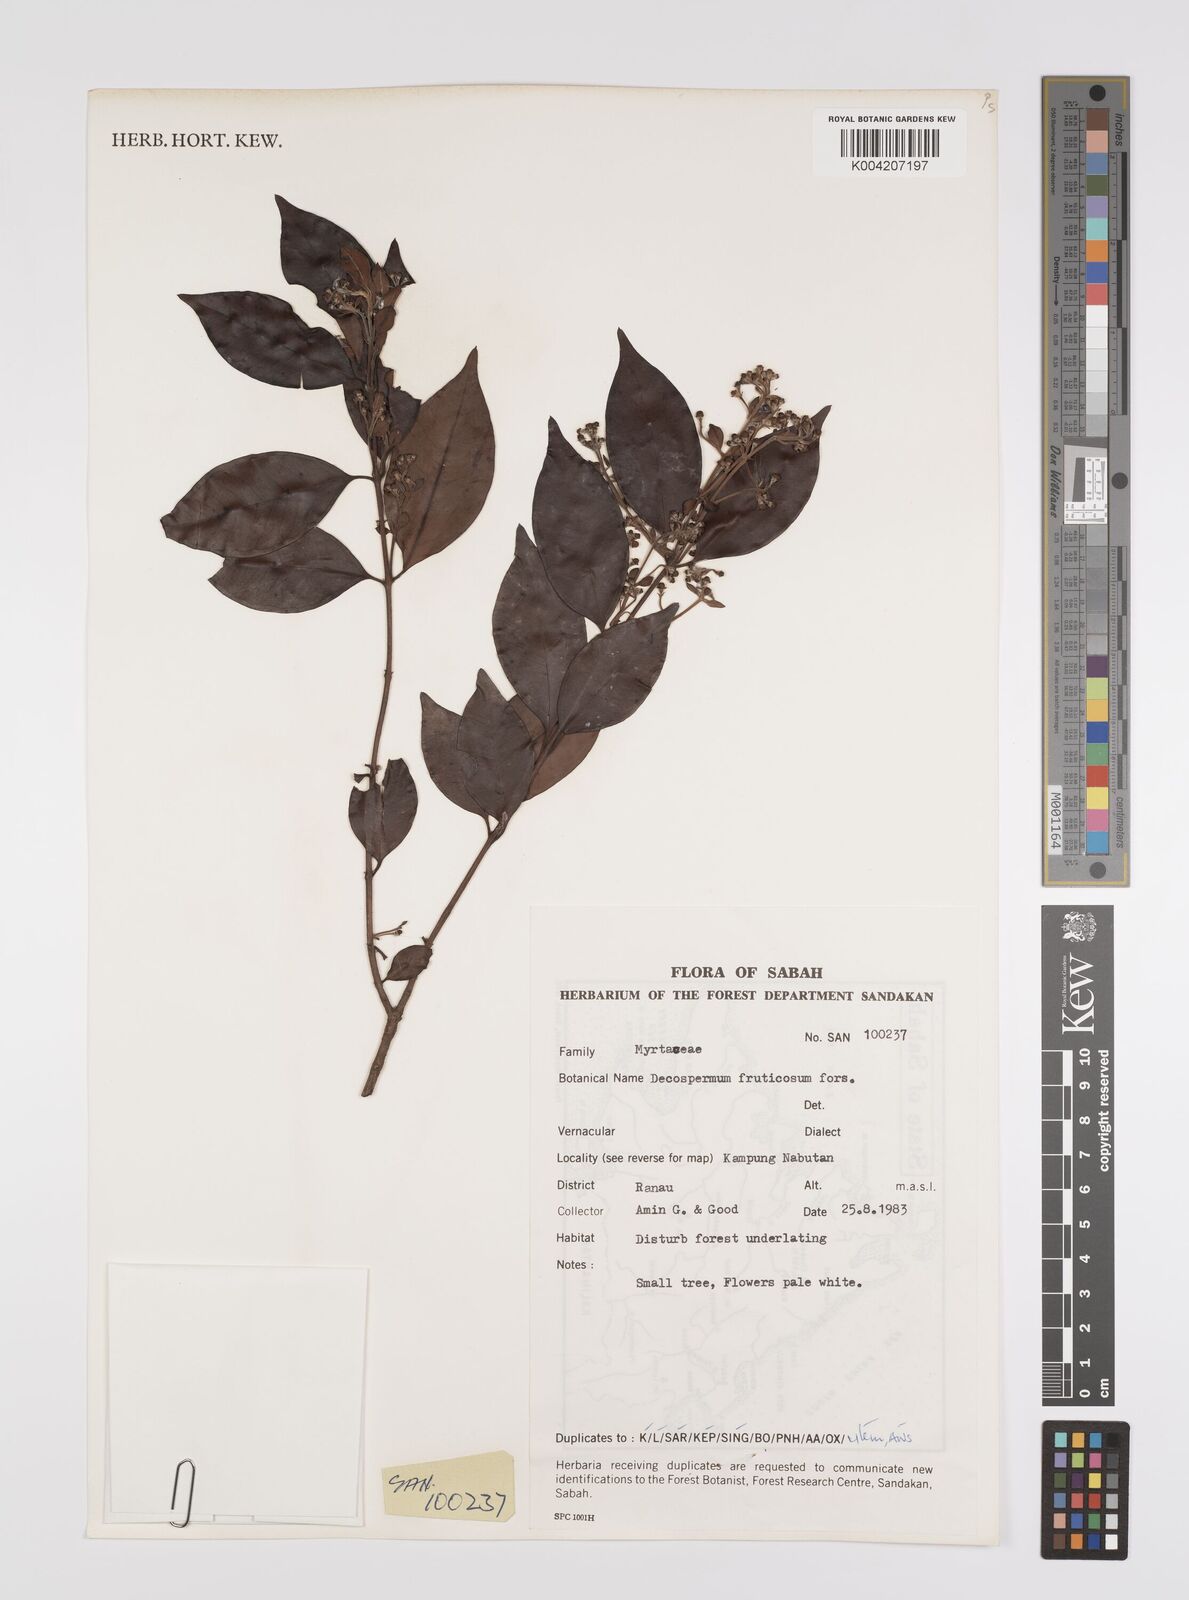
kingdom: Plantae
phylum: Tracheophyta
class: Magnoliopsida
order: Myrtales
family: Myrtaceae
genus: Decaspermum
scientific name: Decaspermum parviflorum
